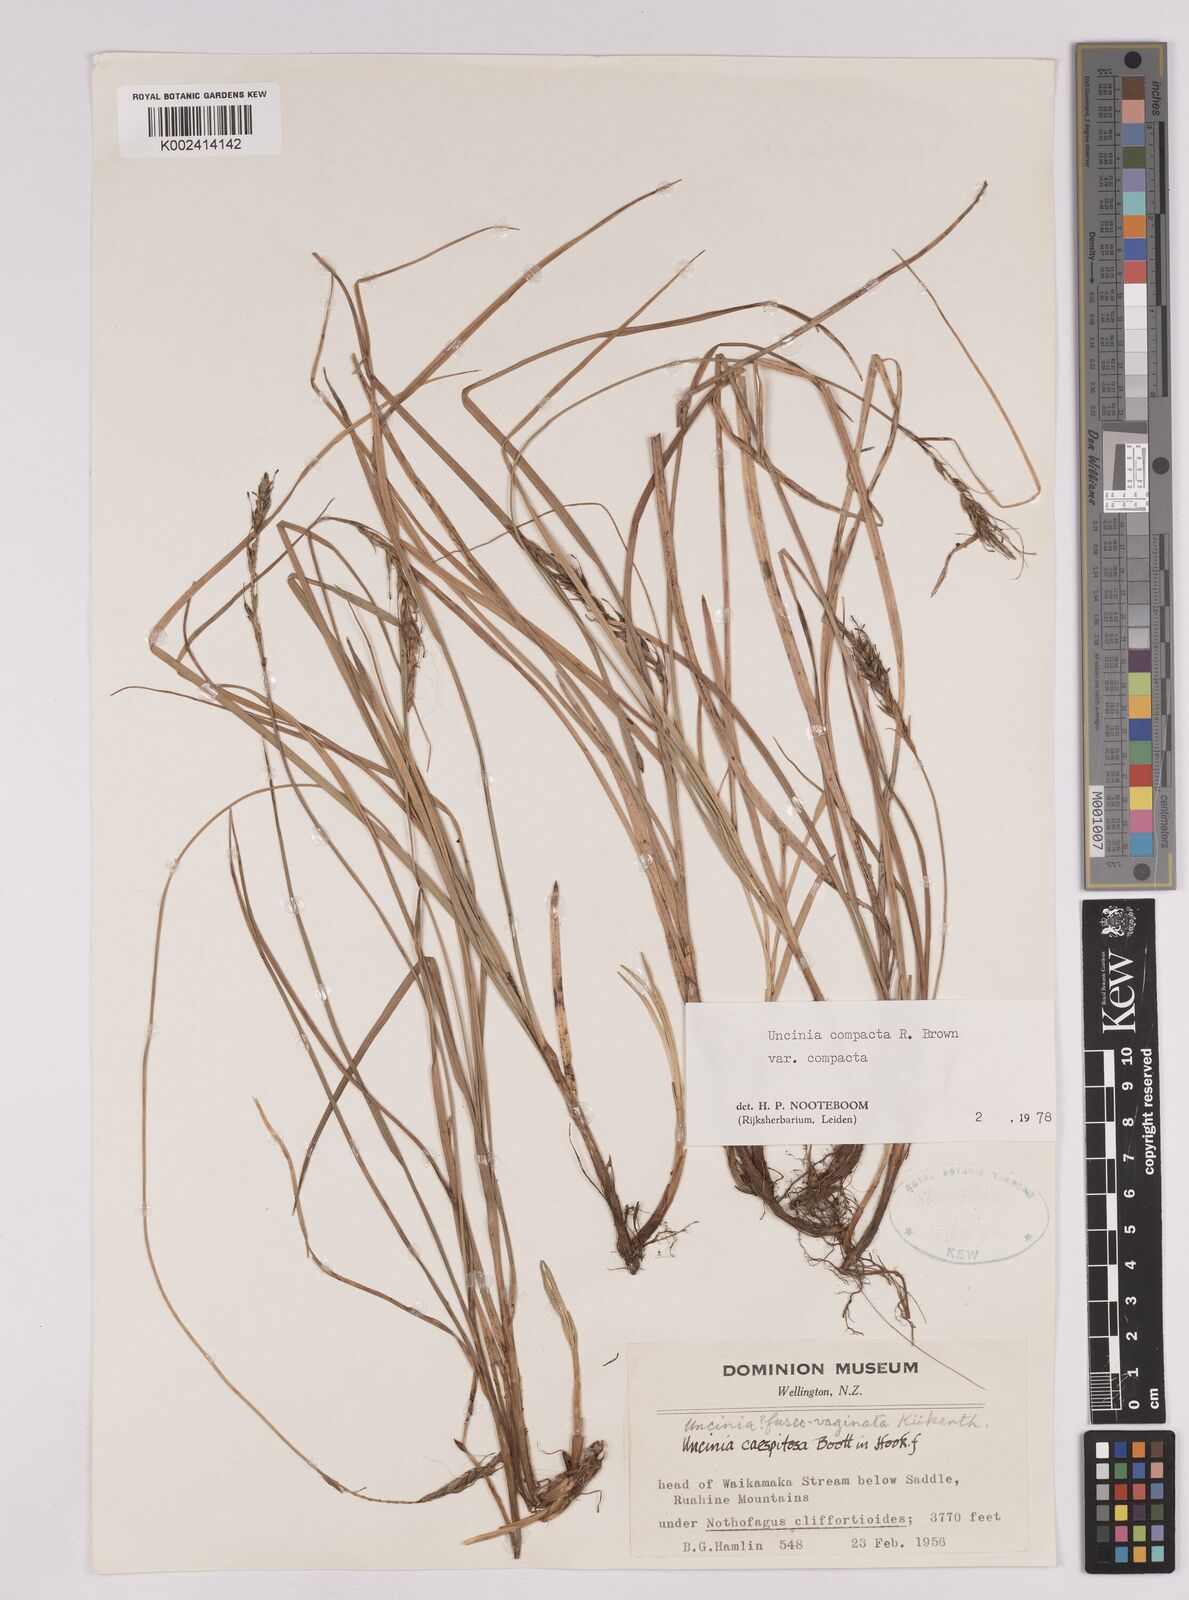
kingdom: Plantae
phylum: Tracheophyta
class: Liliopsida
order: Poales
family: Cyperaceae
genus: Carex
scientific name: Carex austrocompacta
